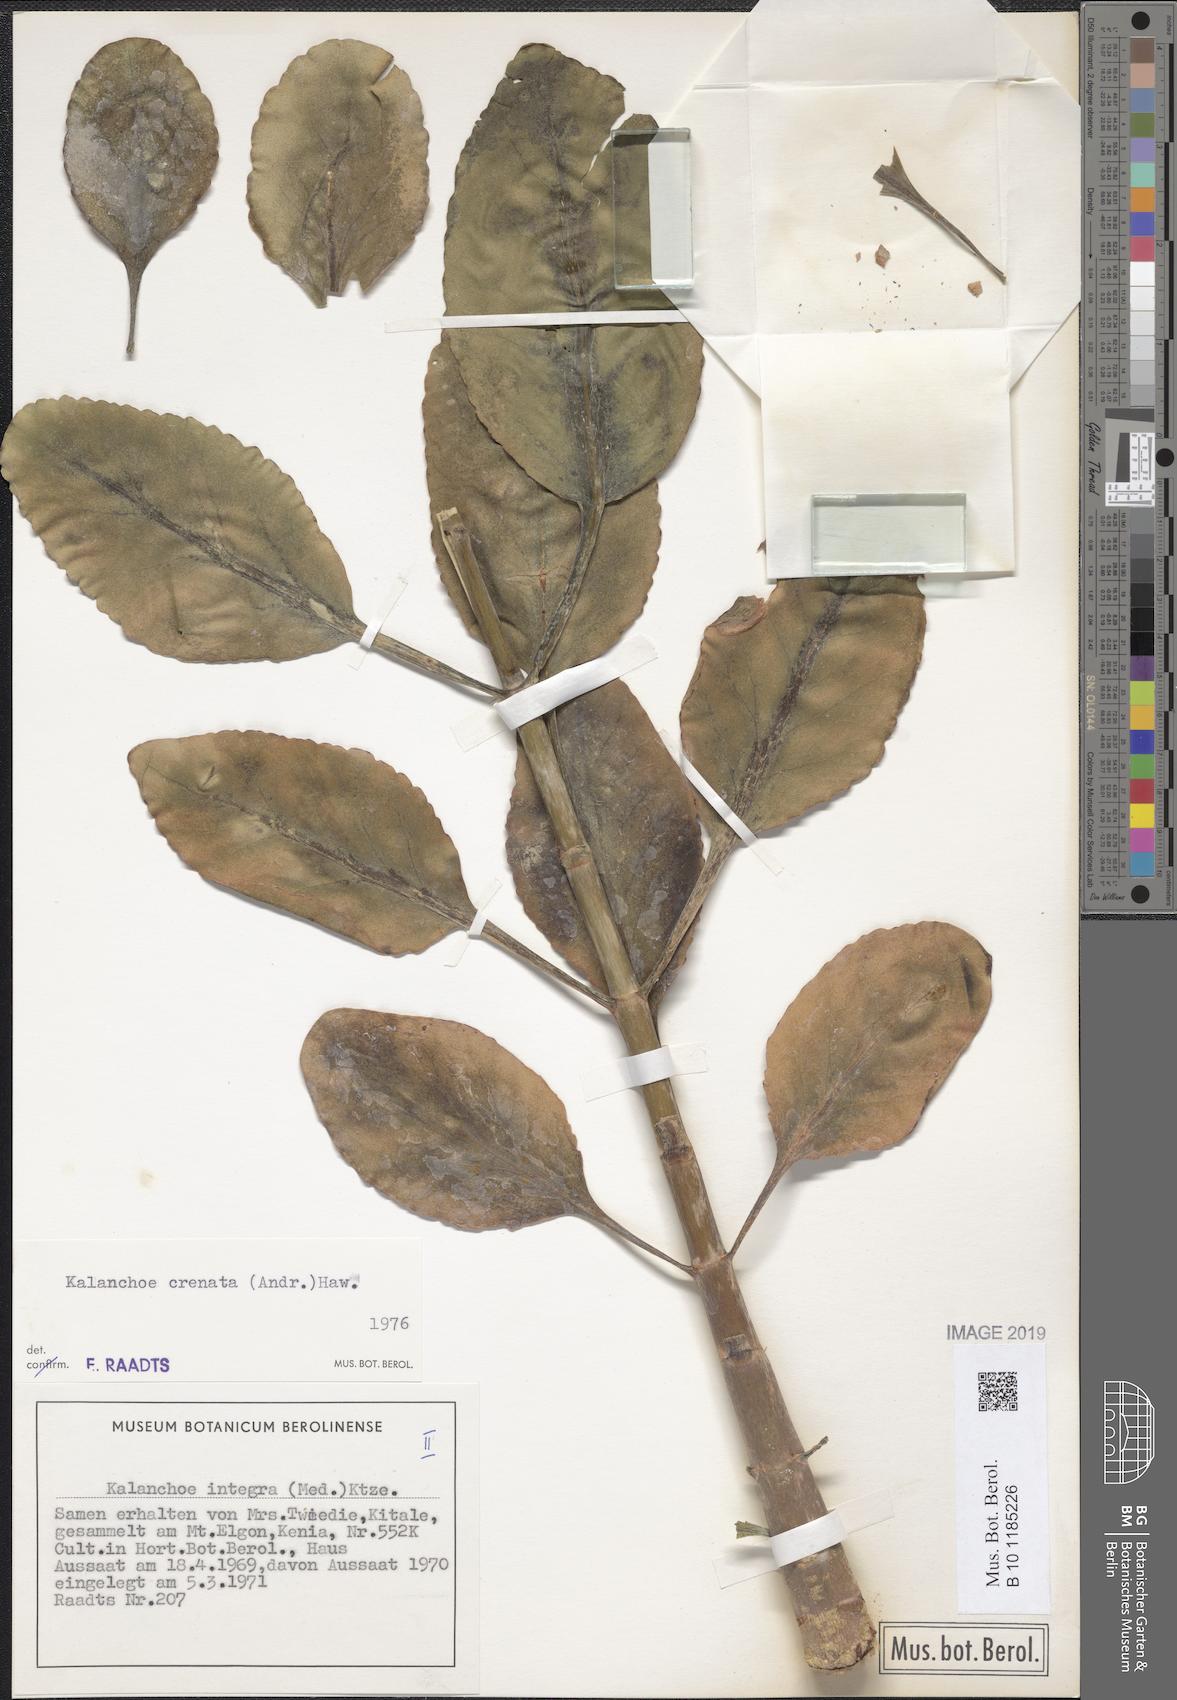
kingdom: Plantae
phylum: Tracheophyta
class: Magnoliopsida
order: Saxifragales
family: Crassulaceae
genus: Kalanchoe
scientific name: Kalanchoe crenata
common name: Neverdie
